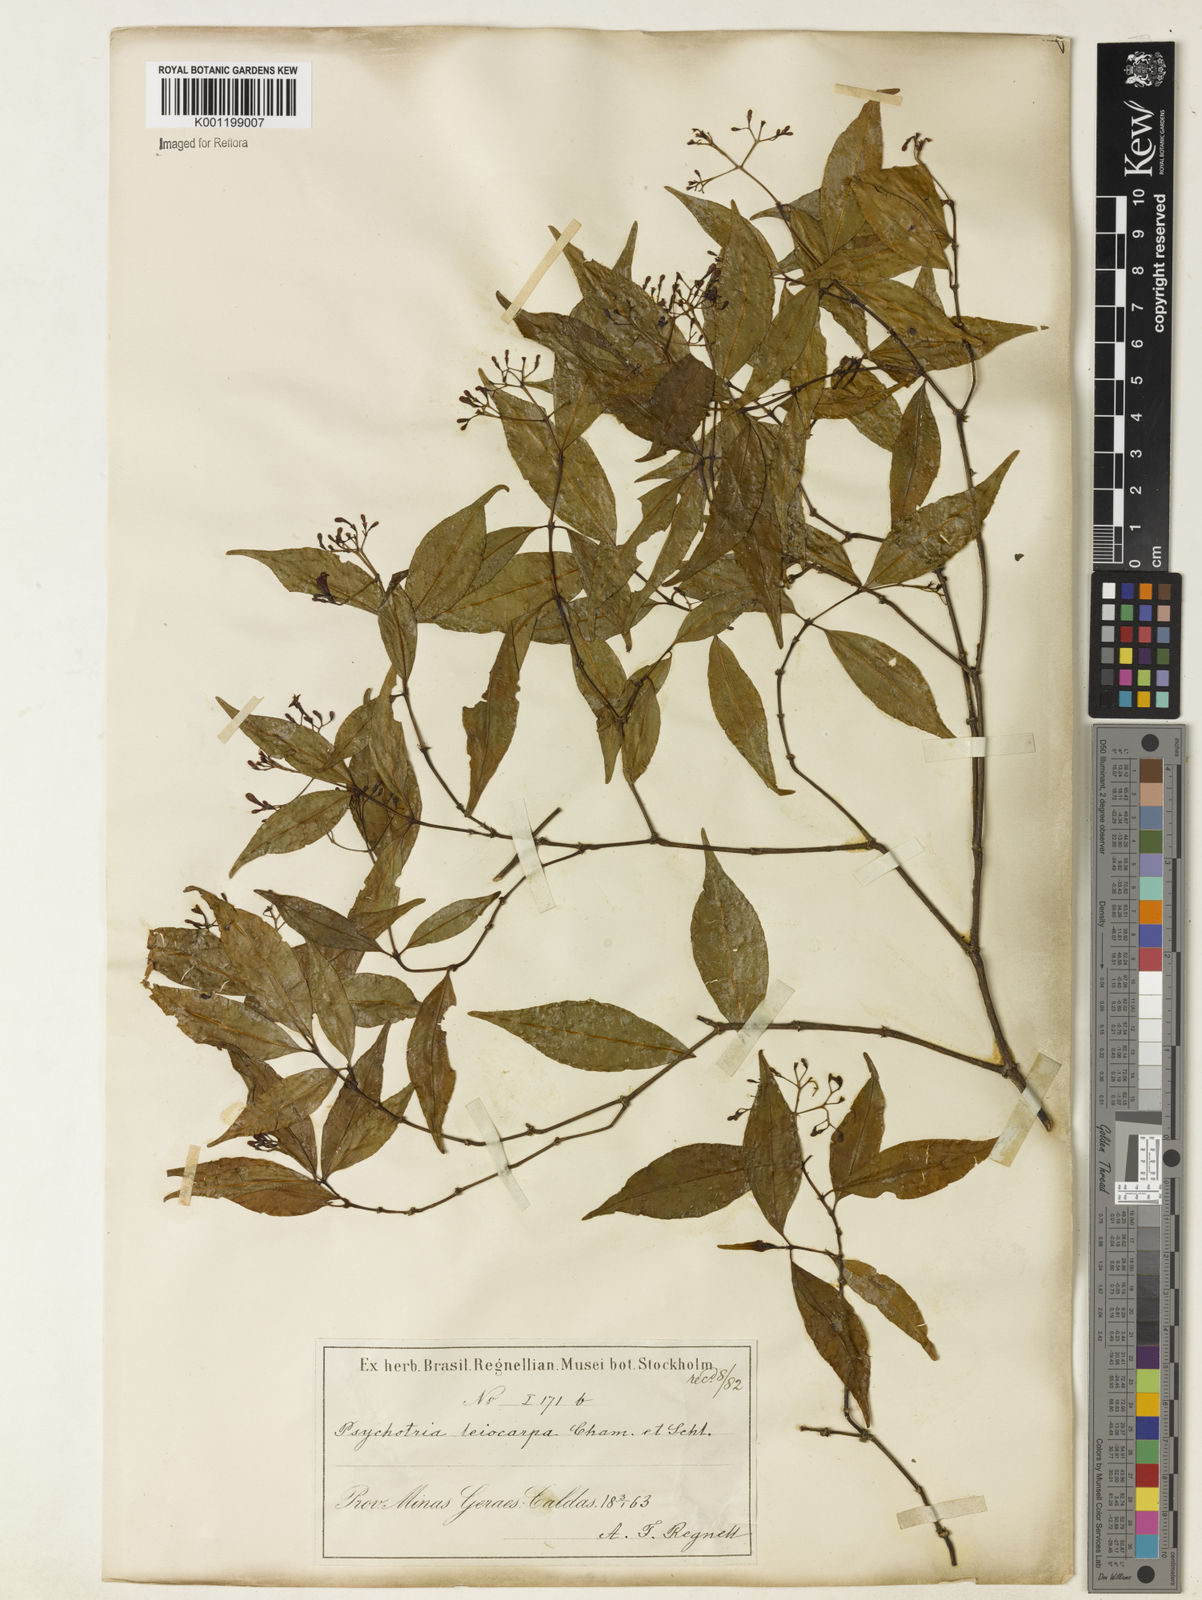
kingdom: Plantae
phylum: Tracheophyta
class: Magnoliopsida
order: Gentianales
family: Rubiaceae
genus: Psychotria
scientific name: Psychotria leiocarpa
